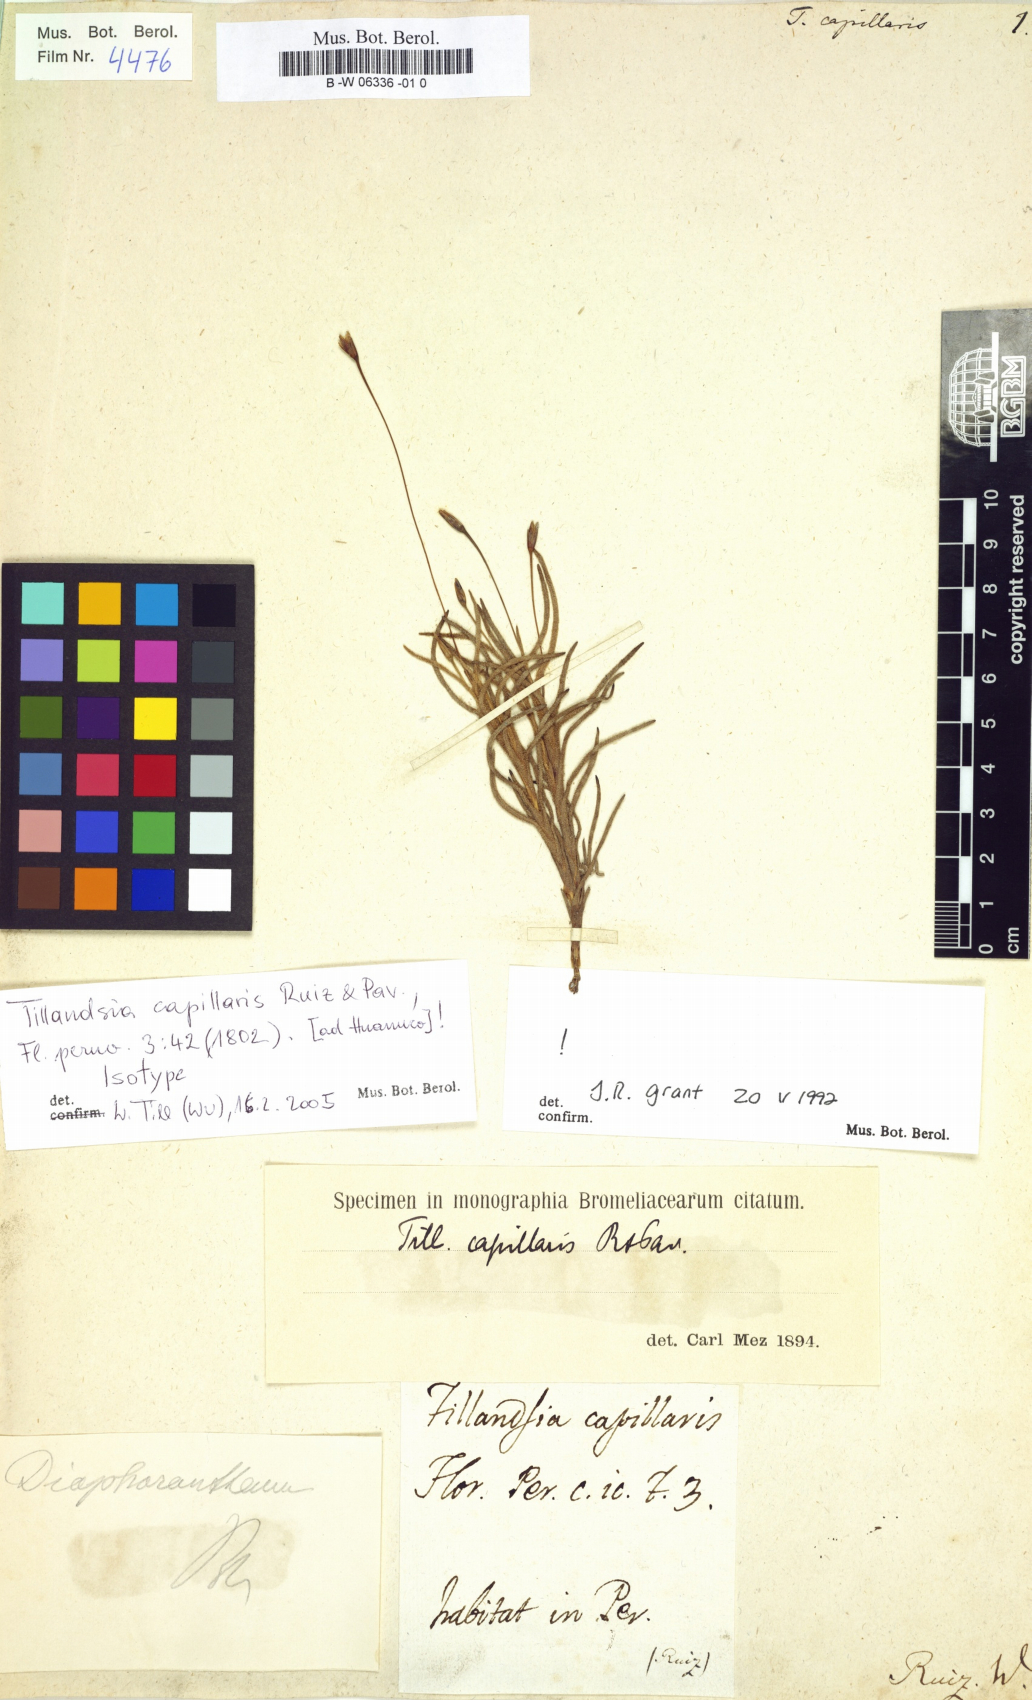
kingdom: Plantae
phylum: Tracheophyta
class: Liliopsida
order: Poales
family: Bromeliaceae
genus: Tillandsia
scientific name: Tillandsia capillaris
